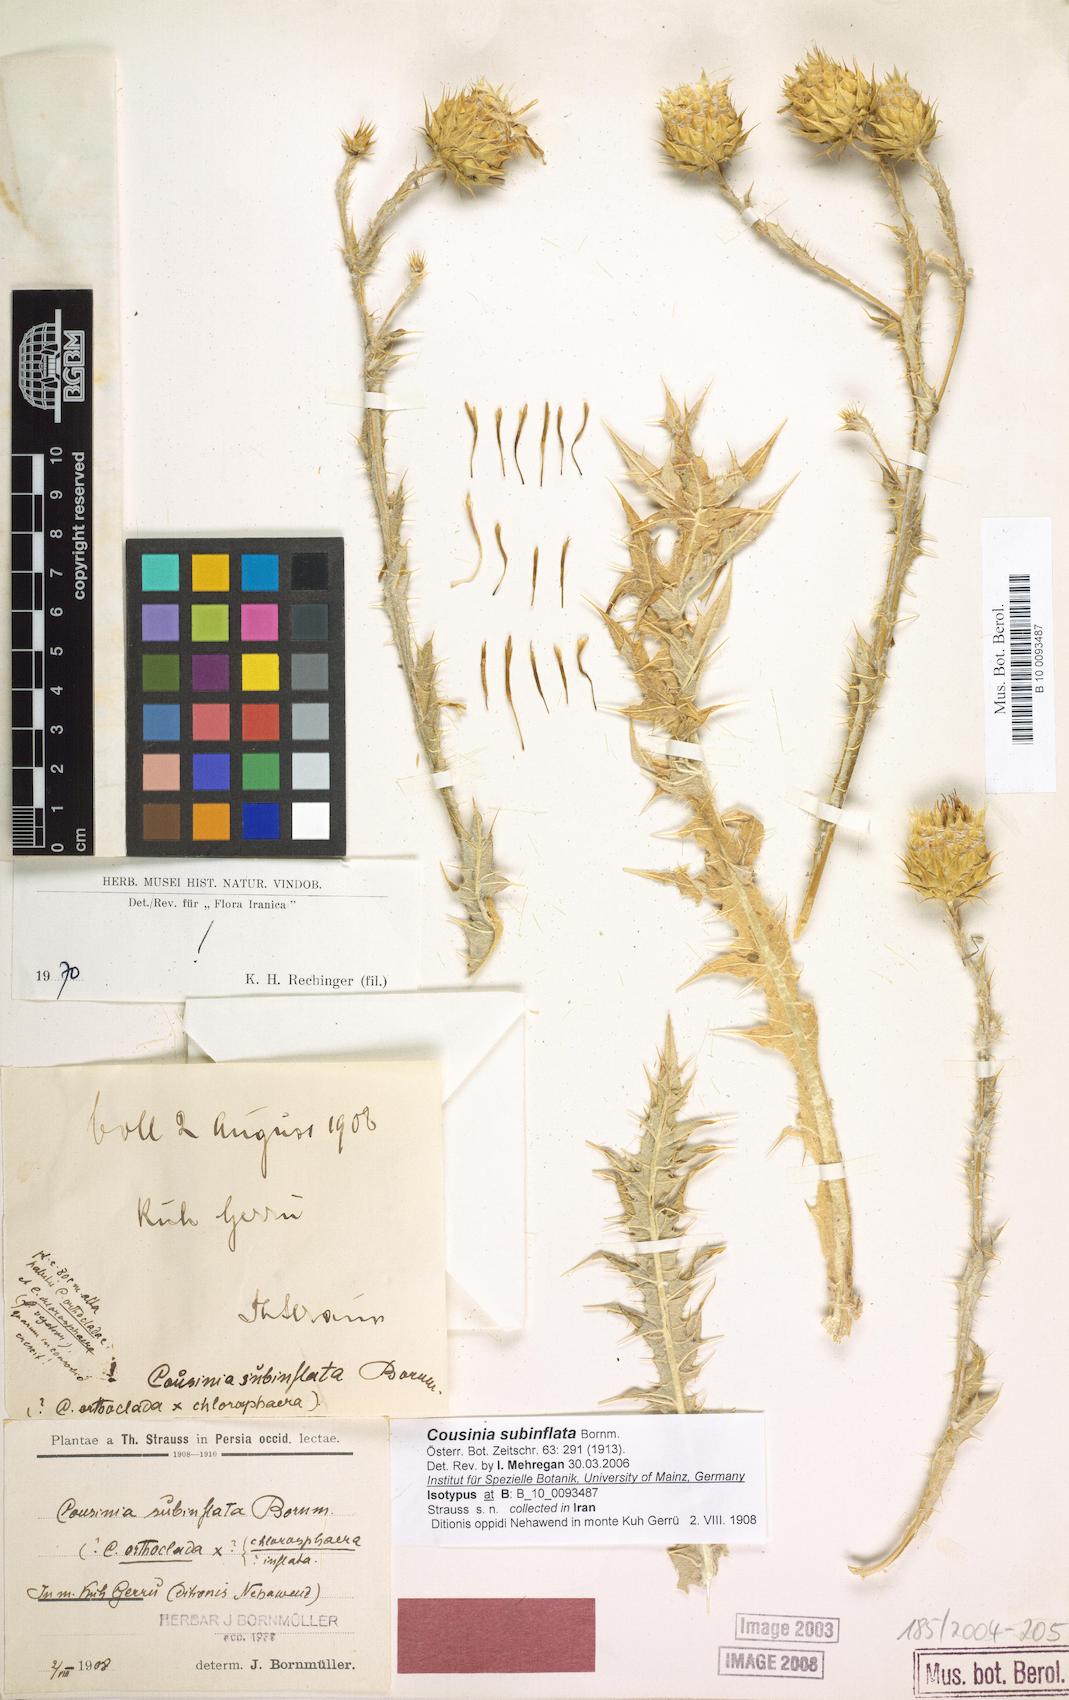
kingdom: Plantae
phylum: Tracheophyta
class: Magnoliopsida
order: Asterales
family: Asteraceae
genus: Cousinia
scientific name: Cousinia subinflata
